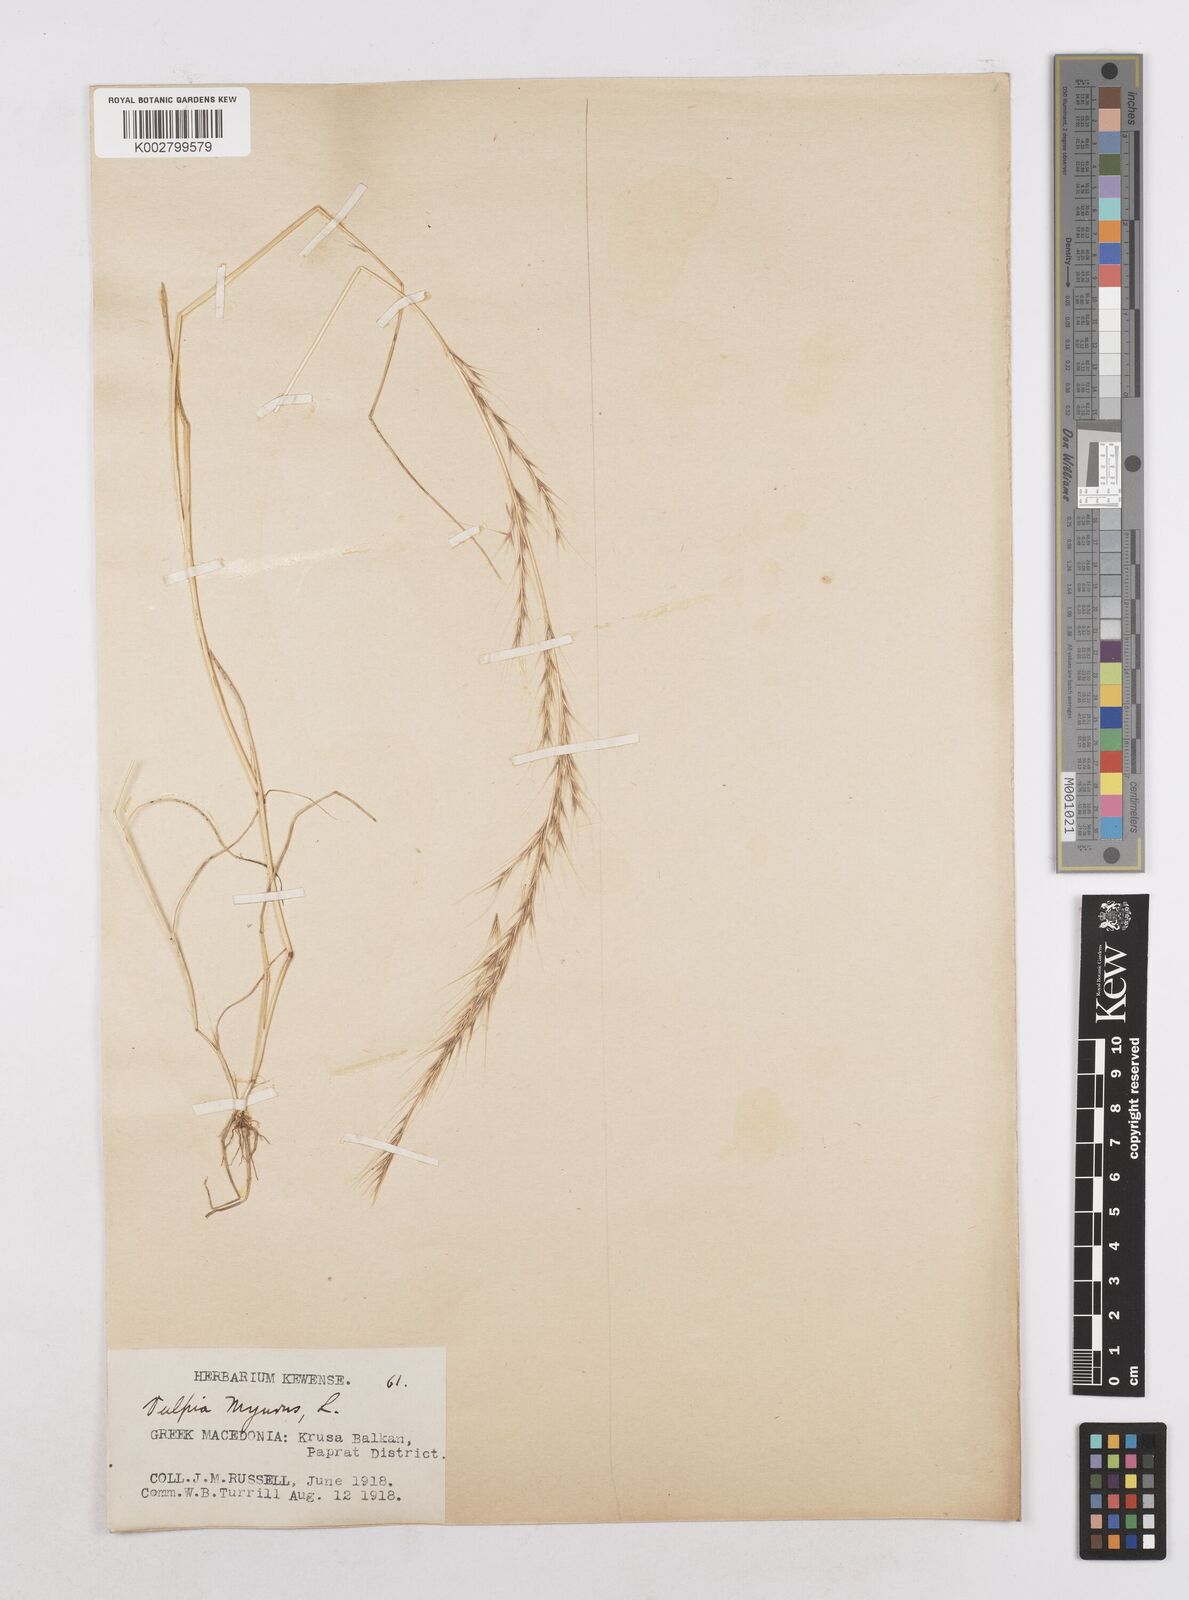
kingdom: Plantae
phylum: Tracheophyta
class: Liliopsida
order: Poales
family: Poaceae
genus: Festuca
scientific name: Festuca myuros
